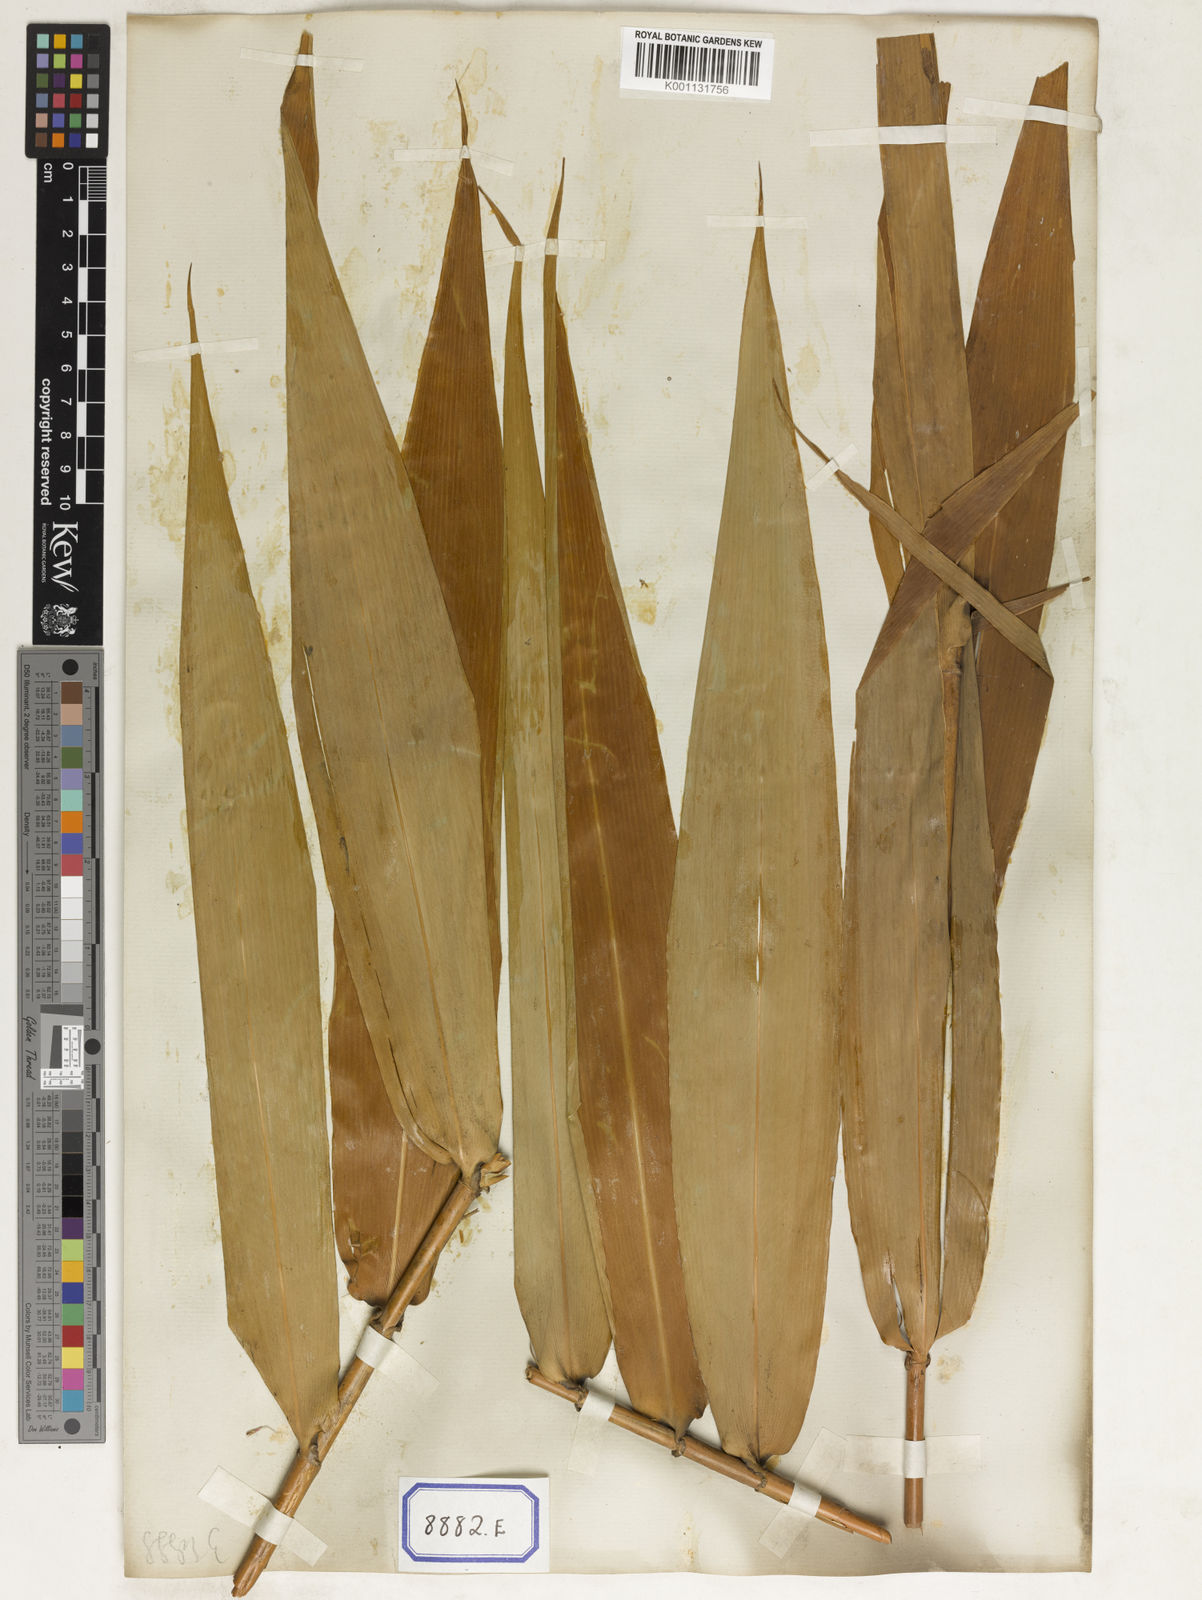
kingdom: Plantae
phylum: Tracheophyta
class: Liliopsida
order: Poales
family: Poaceae
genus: Thysanolaena
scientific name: Thysanolaena latifolia
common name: Tiger grass
